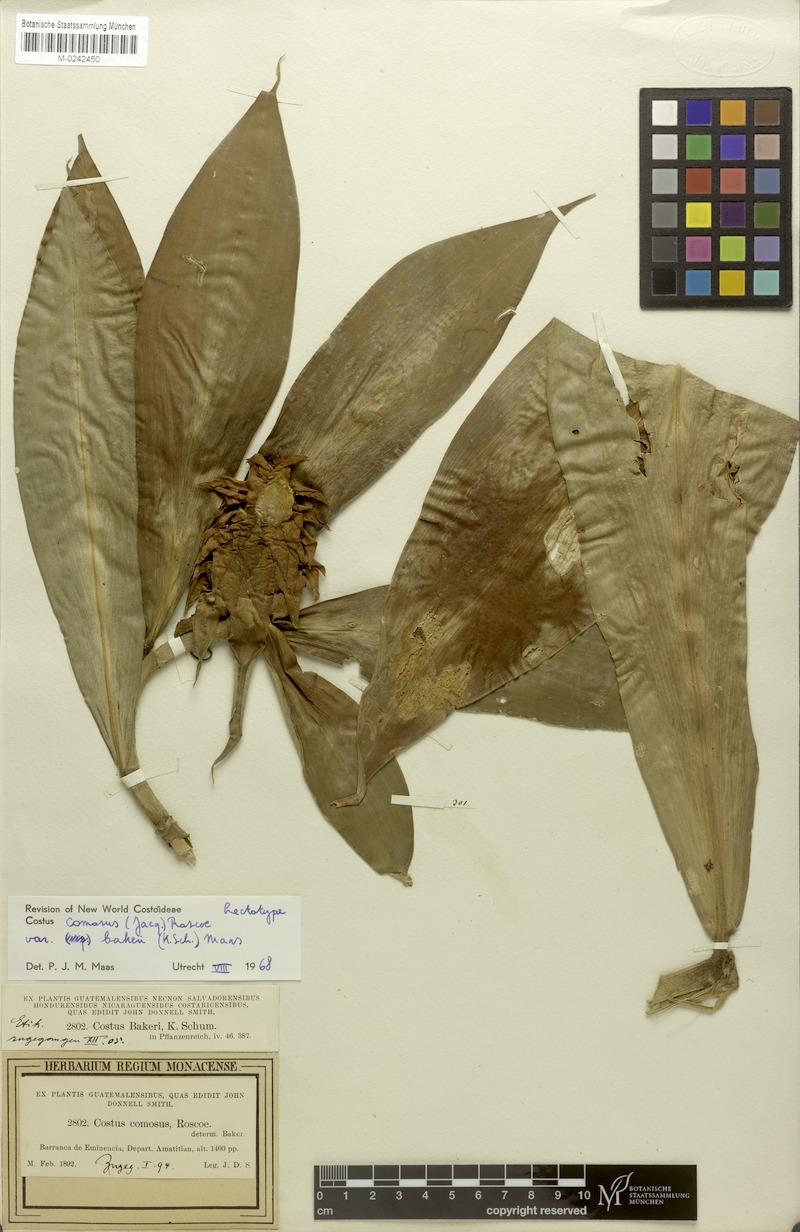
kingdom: Plantae
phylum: Tracheophyta
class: Liliopsida
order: Zingiberales
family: Costaceae
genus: Costus
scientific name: Costus comosus
